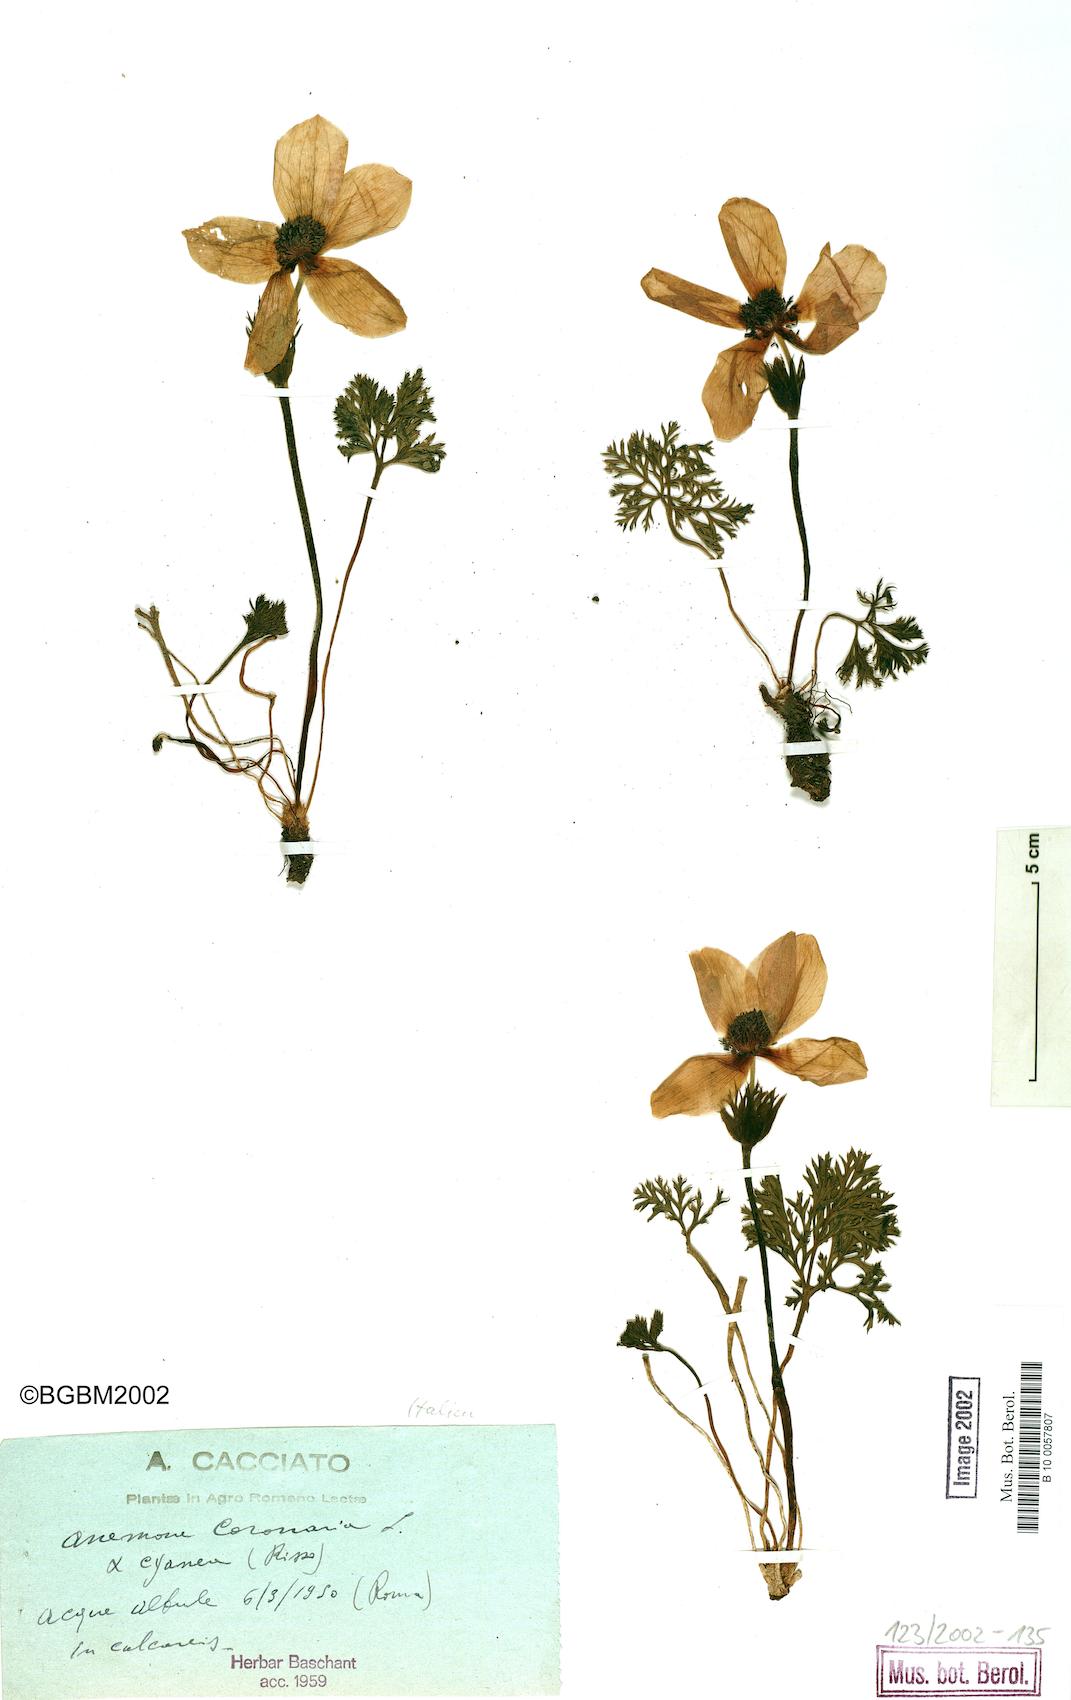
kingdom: Plantae
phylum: Tracheophyta
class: Magnoliopsida
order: Ranunculales
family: Ranunculaceae
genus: Anemone
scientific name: Anemone coronaria
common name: Poppy anemone
